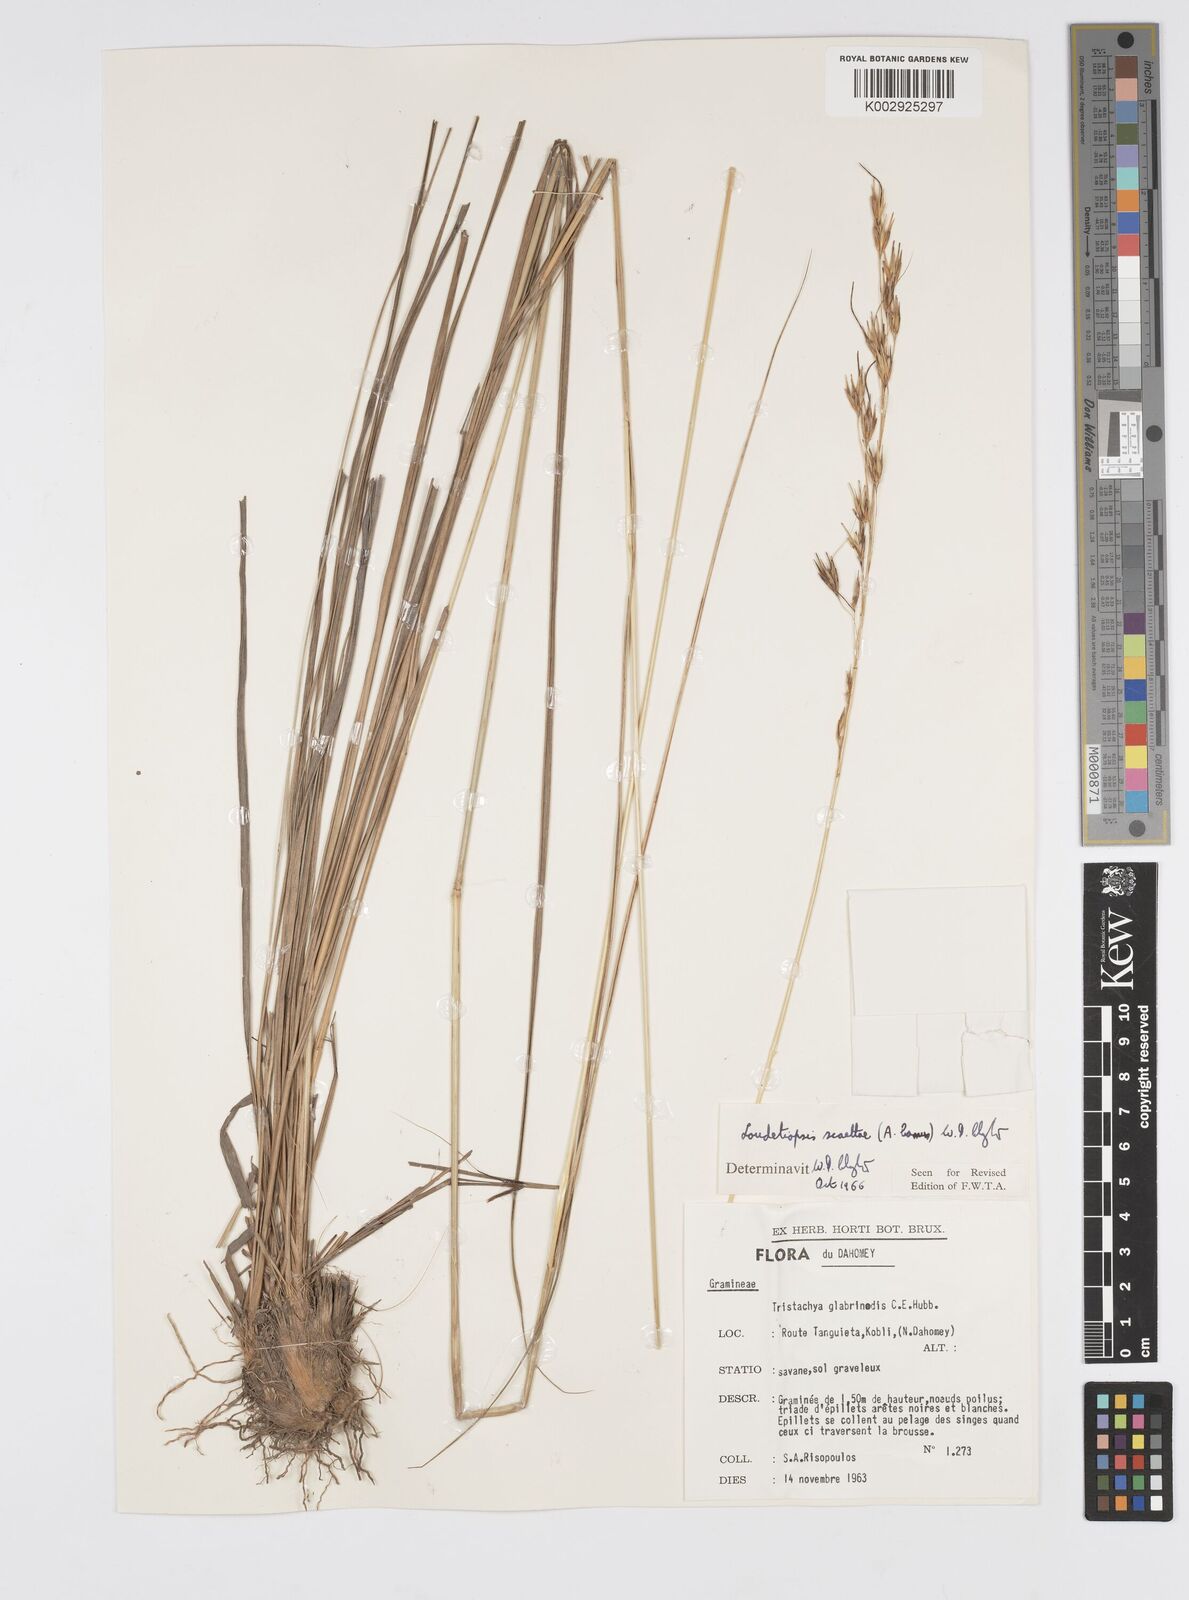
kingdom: Plantae
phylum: Tracheophyta
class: Liliopsida
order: Poales
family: Poaceae
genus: Loudetiopsis
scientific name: Loudetiopsis scaettae
